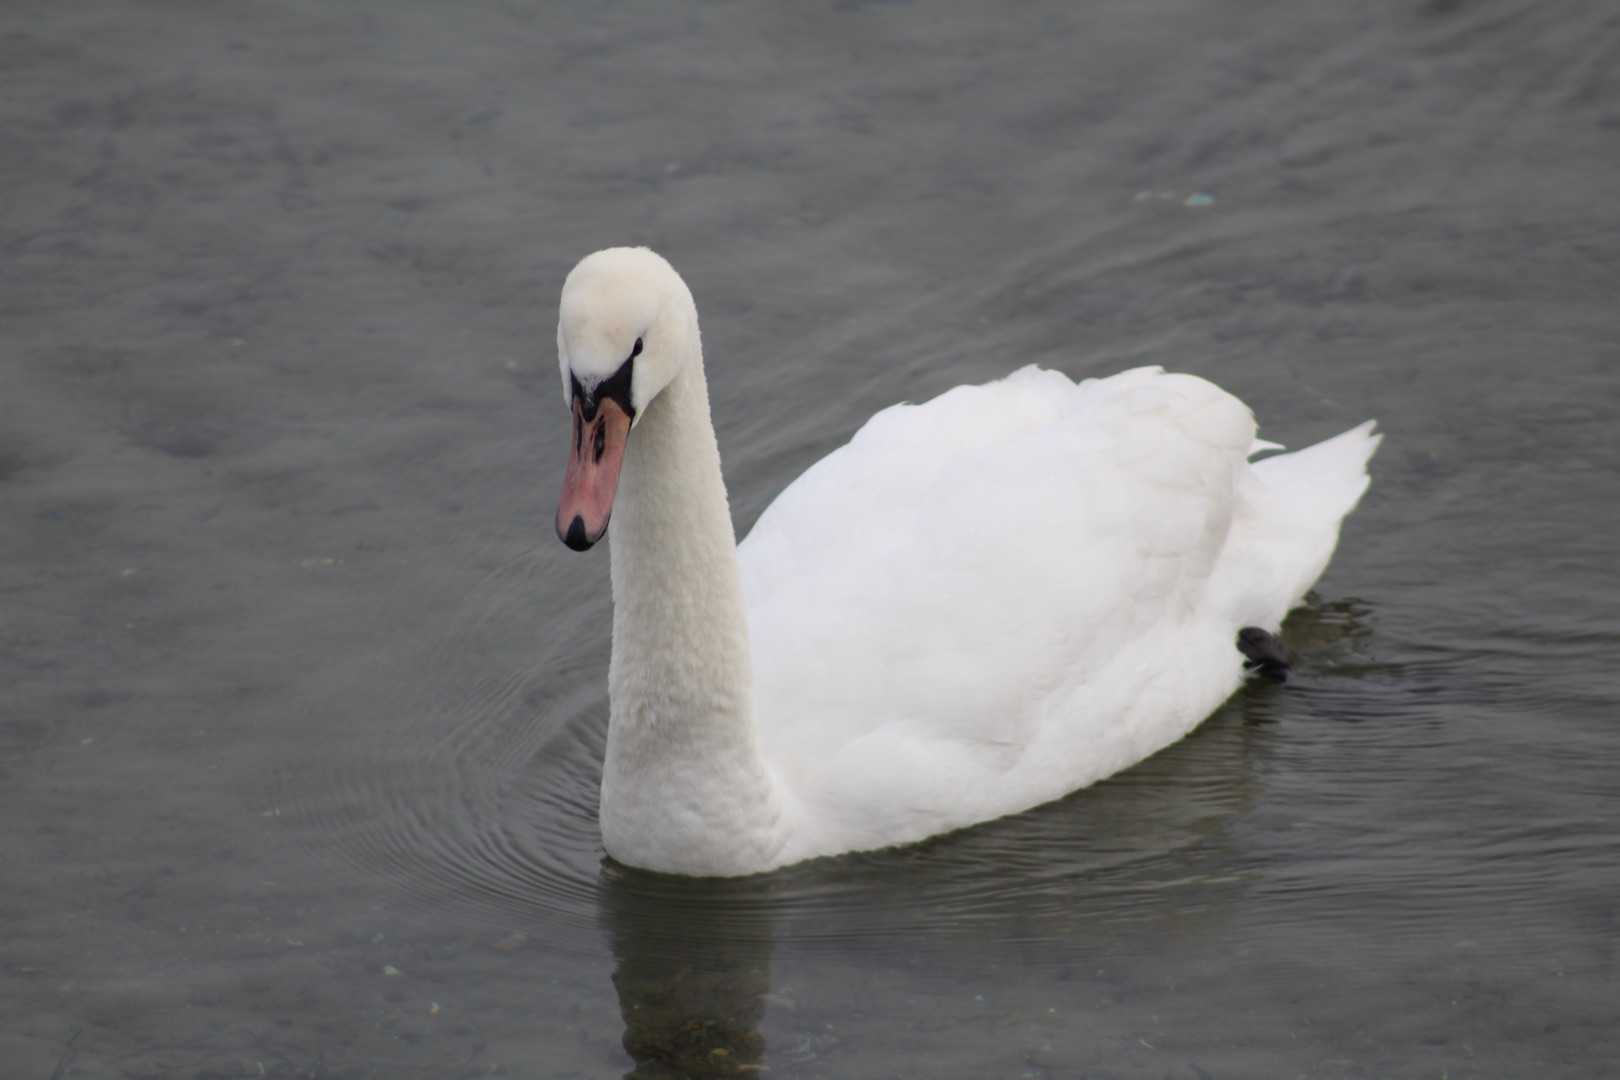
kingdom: Animalia
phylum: Chordata
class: Aves
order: Anseriformes
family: Anatidae
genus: Cygnus
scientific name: Cygnus olor
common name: Knopsvane
